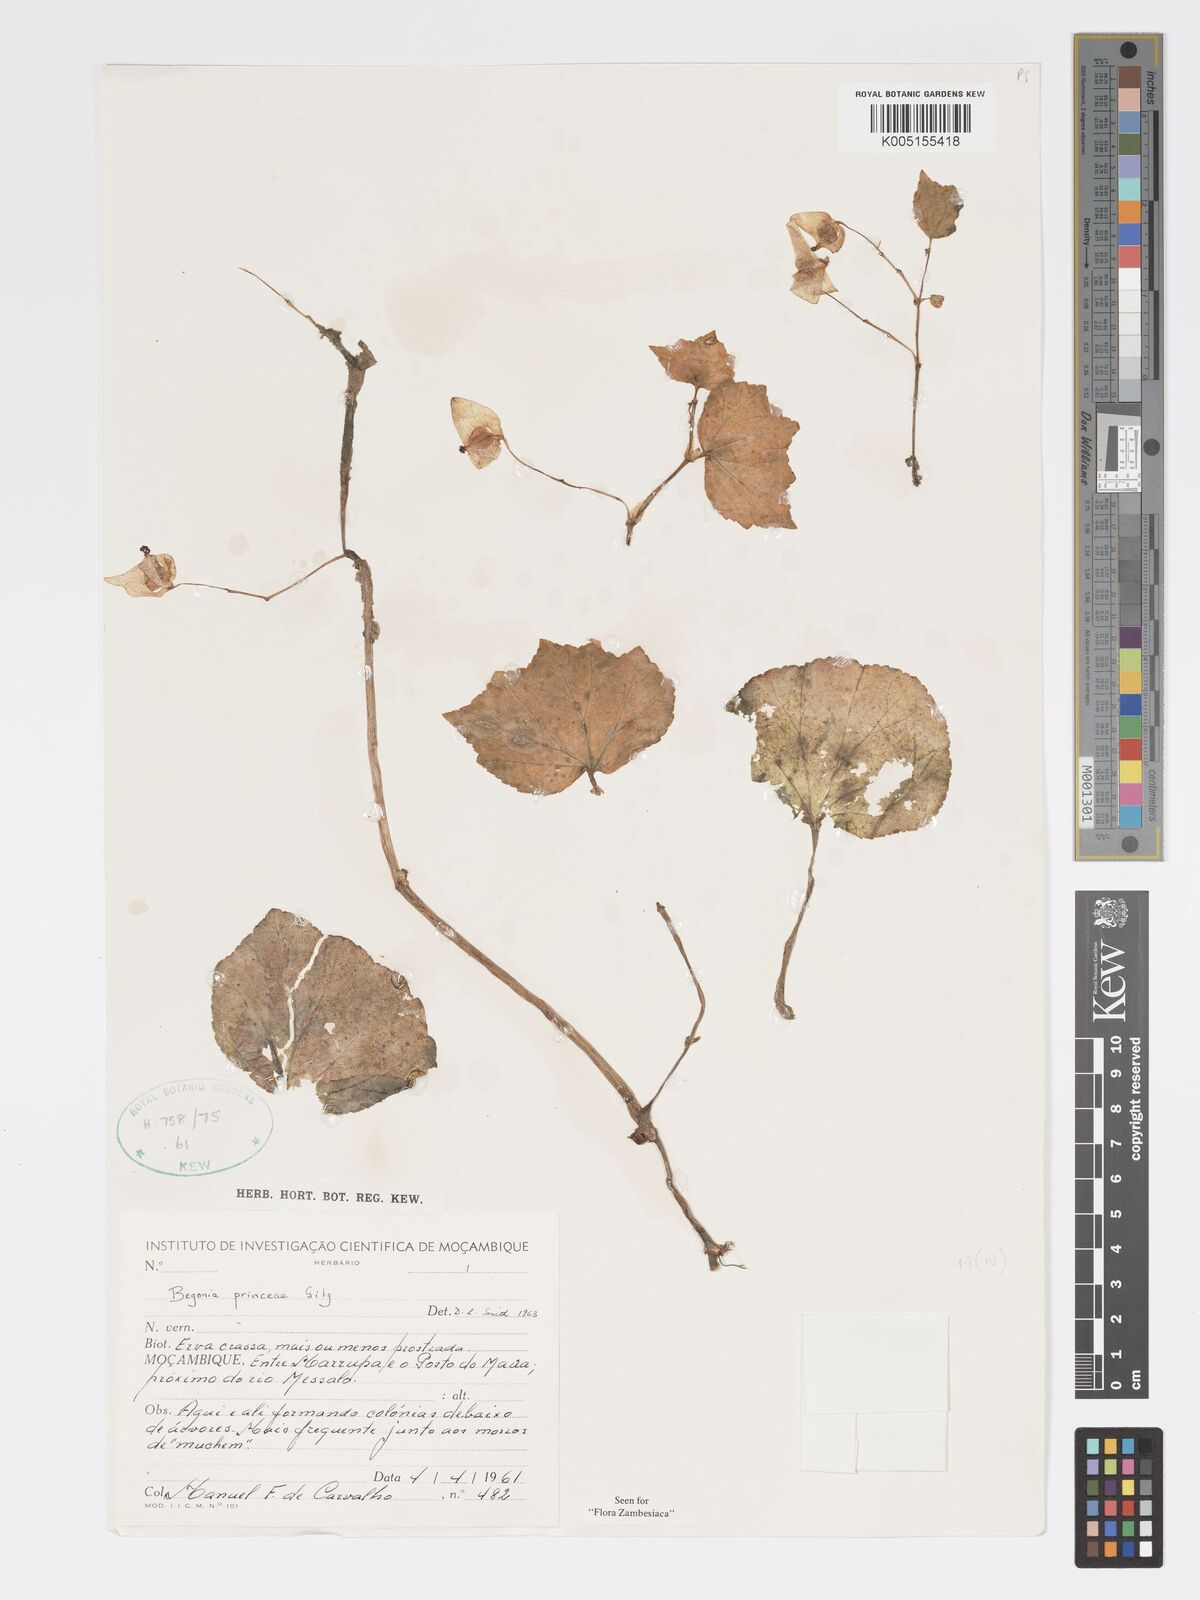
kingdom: Plantae
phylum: Tracheophyta
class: Magnoliopsida
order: Cucurbitales
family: Begoniaceae
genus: Begonia
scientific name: Begonia princeae
